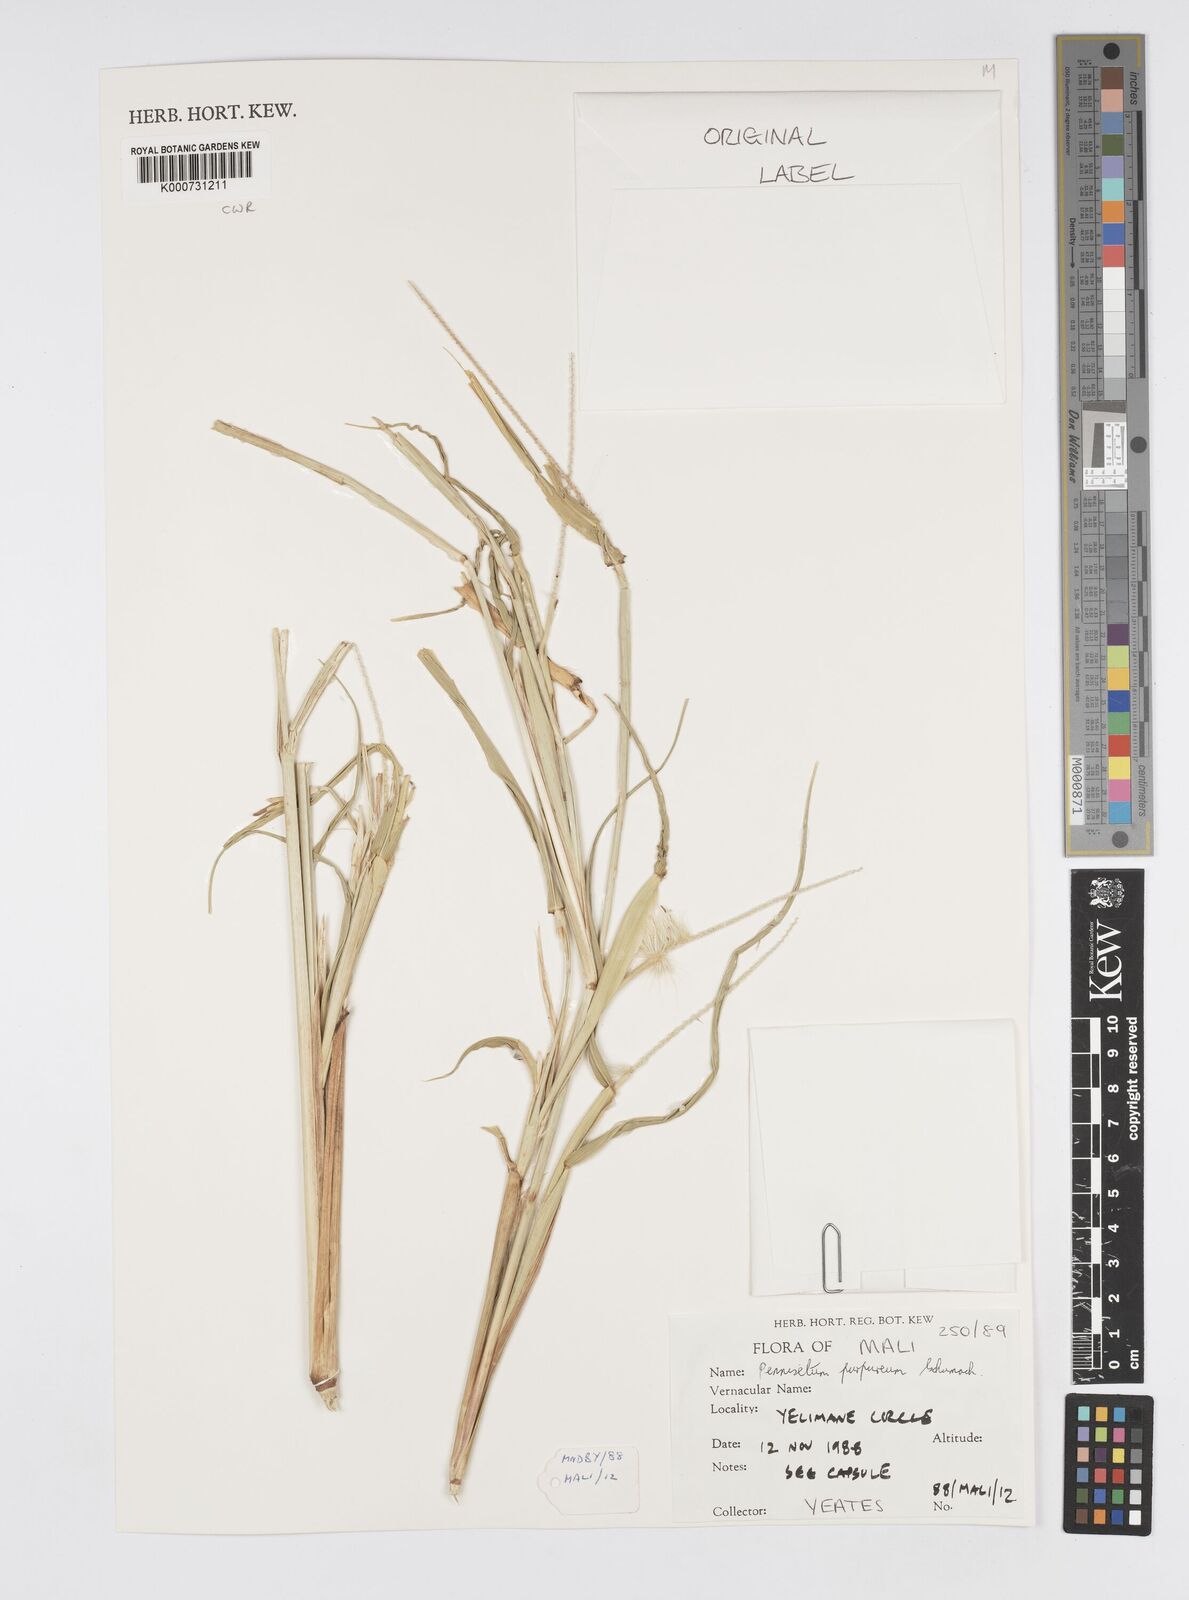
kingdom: Plantae
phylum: Tracheophyta
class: Liliopsida
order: Poales
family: Poaceae
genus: Cenchrus
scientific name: Cenchrus purpureus
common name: Elephant grass
